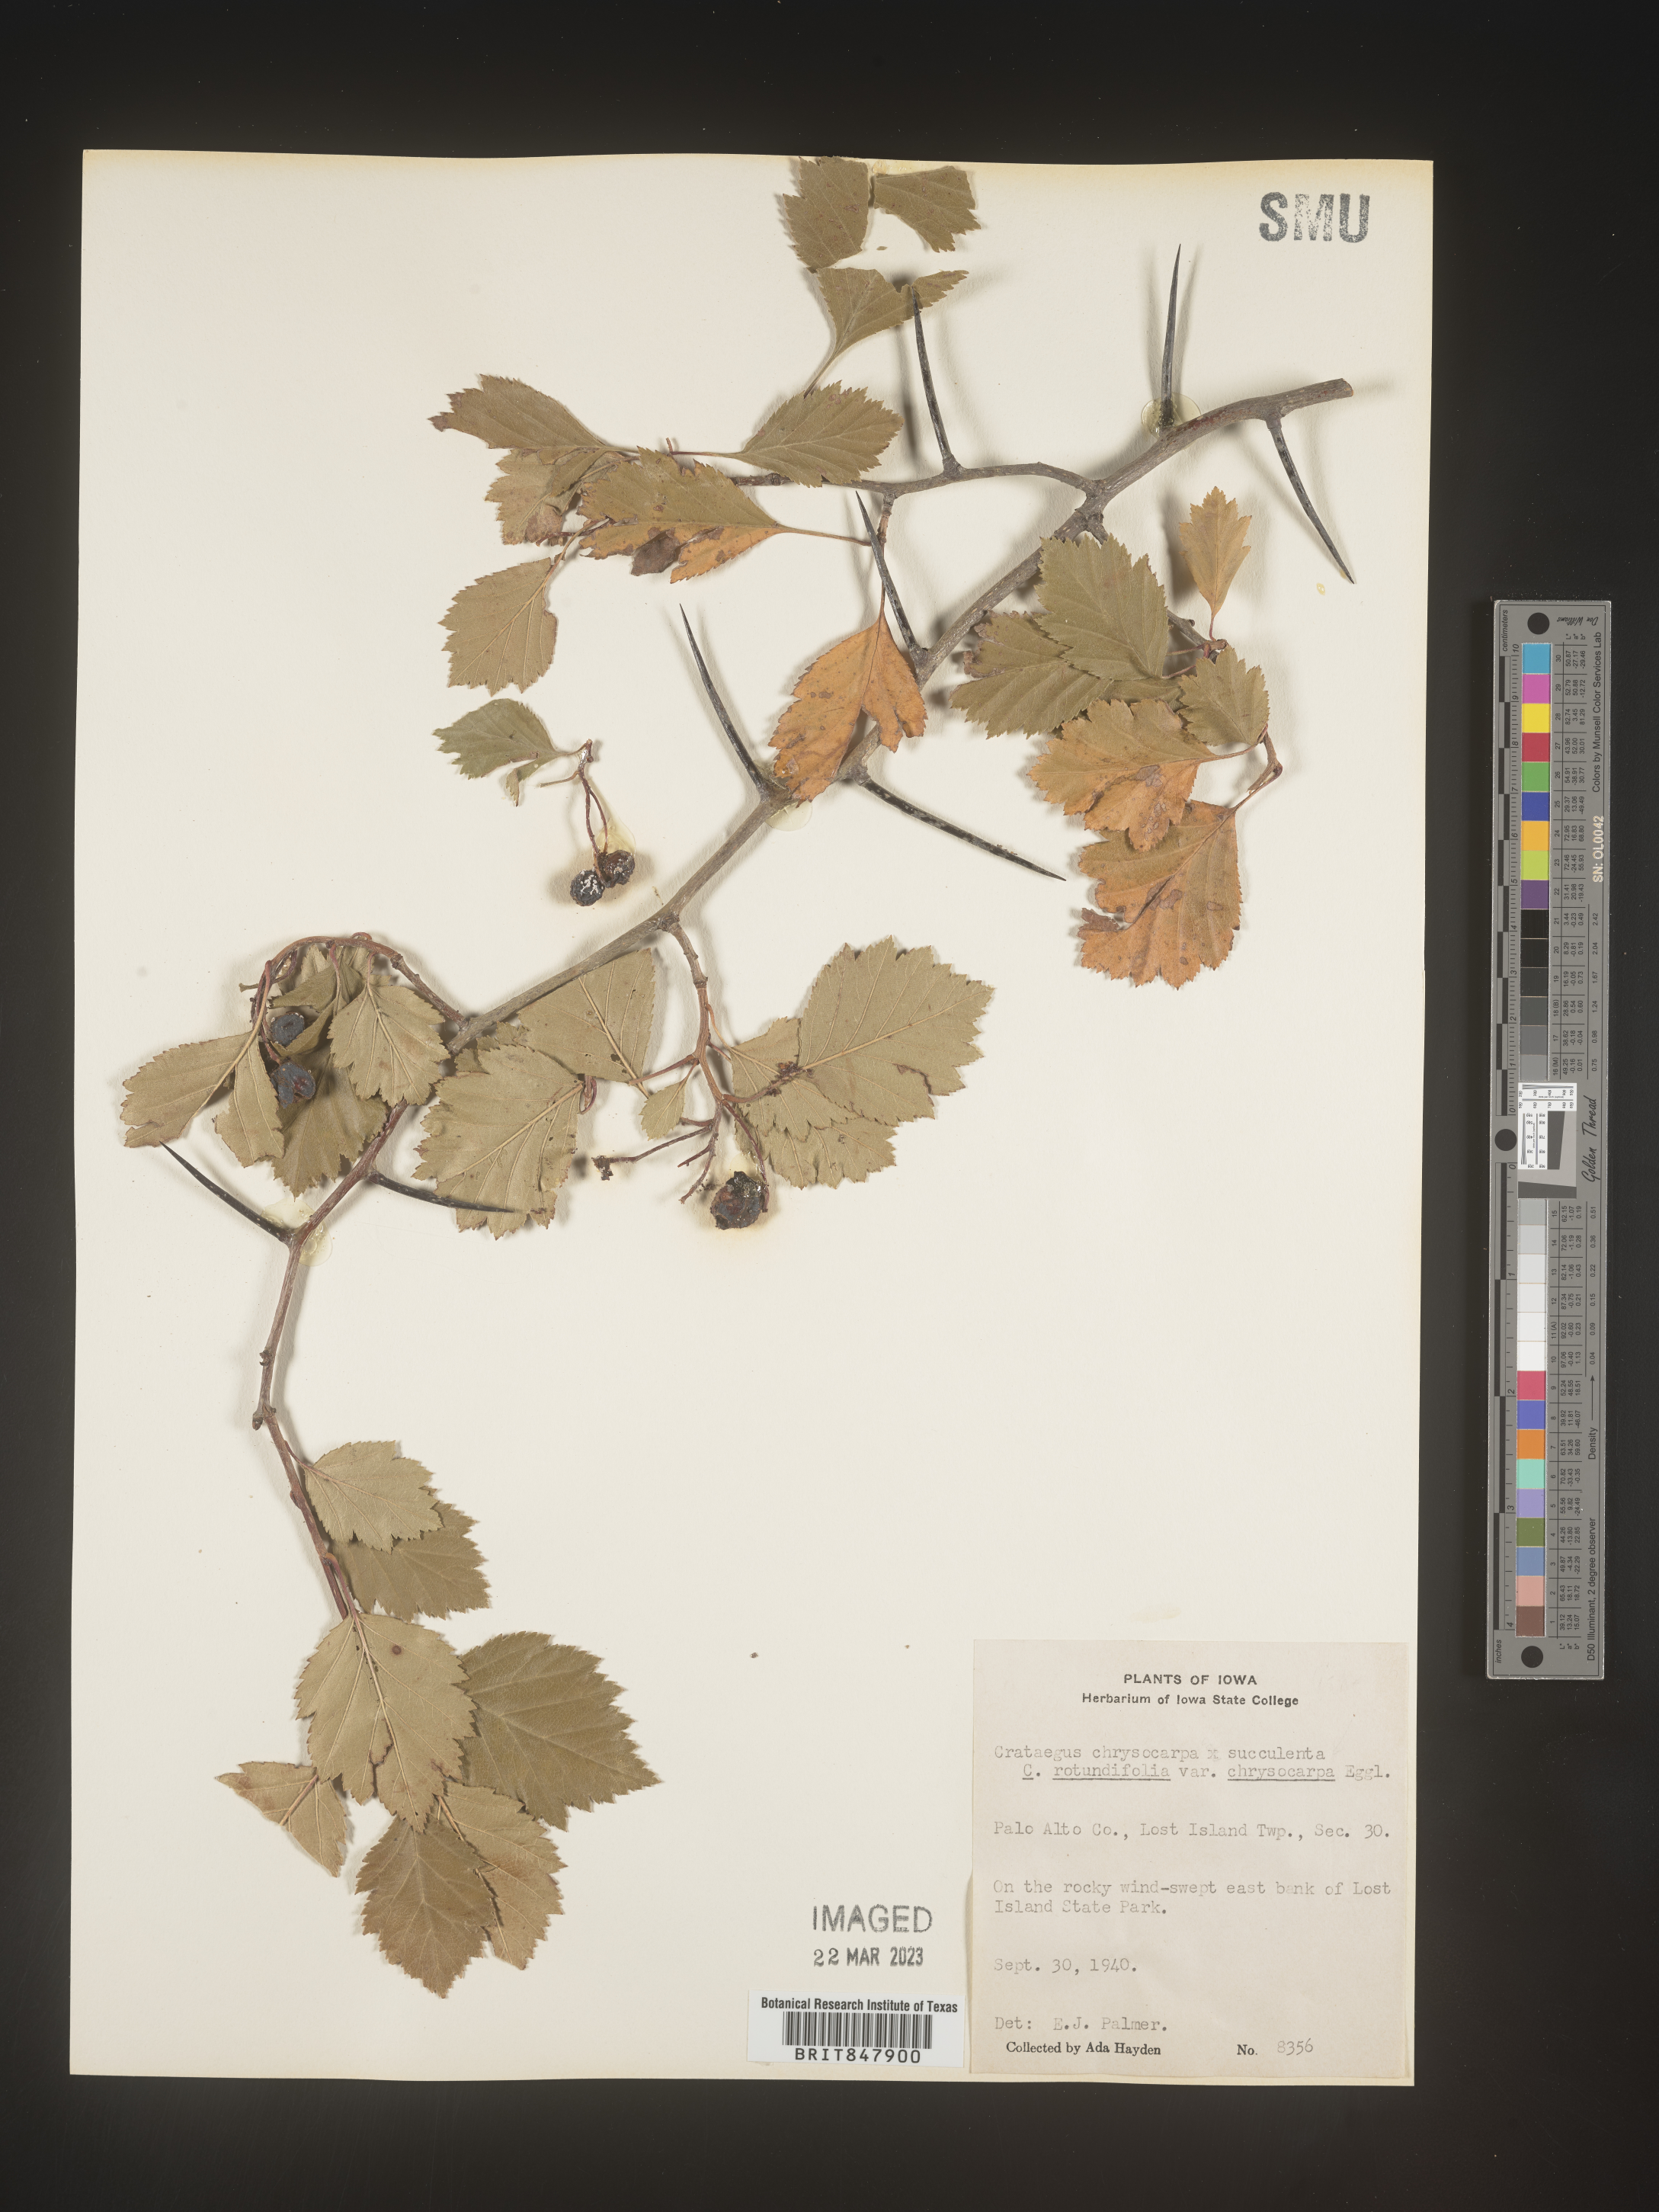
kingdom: Plantae
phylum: Tracheophyta
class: Magnoliopsida
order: Rosales
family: Rosaceae
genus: Crataegus
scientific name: Crataegus chrysocarpa
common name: Fire-berry hawthorn
